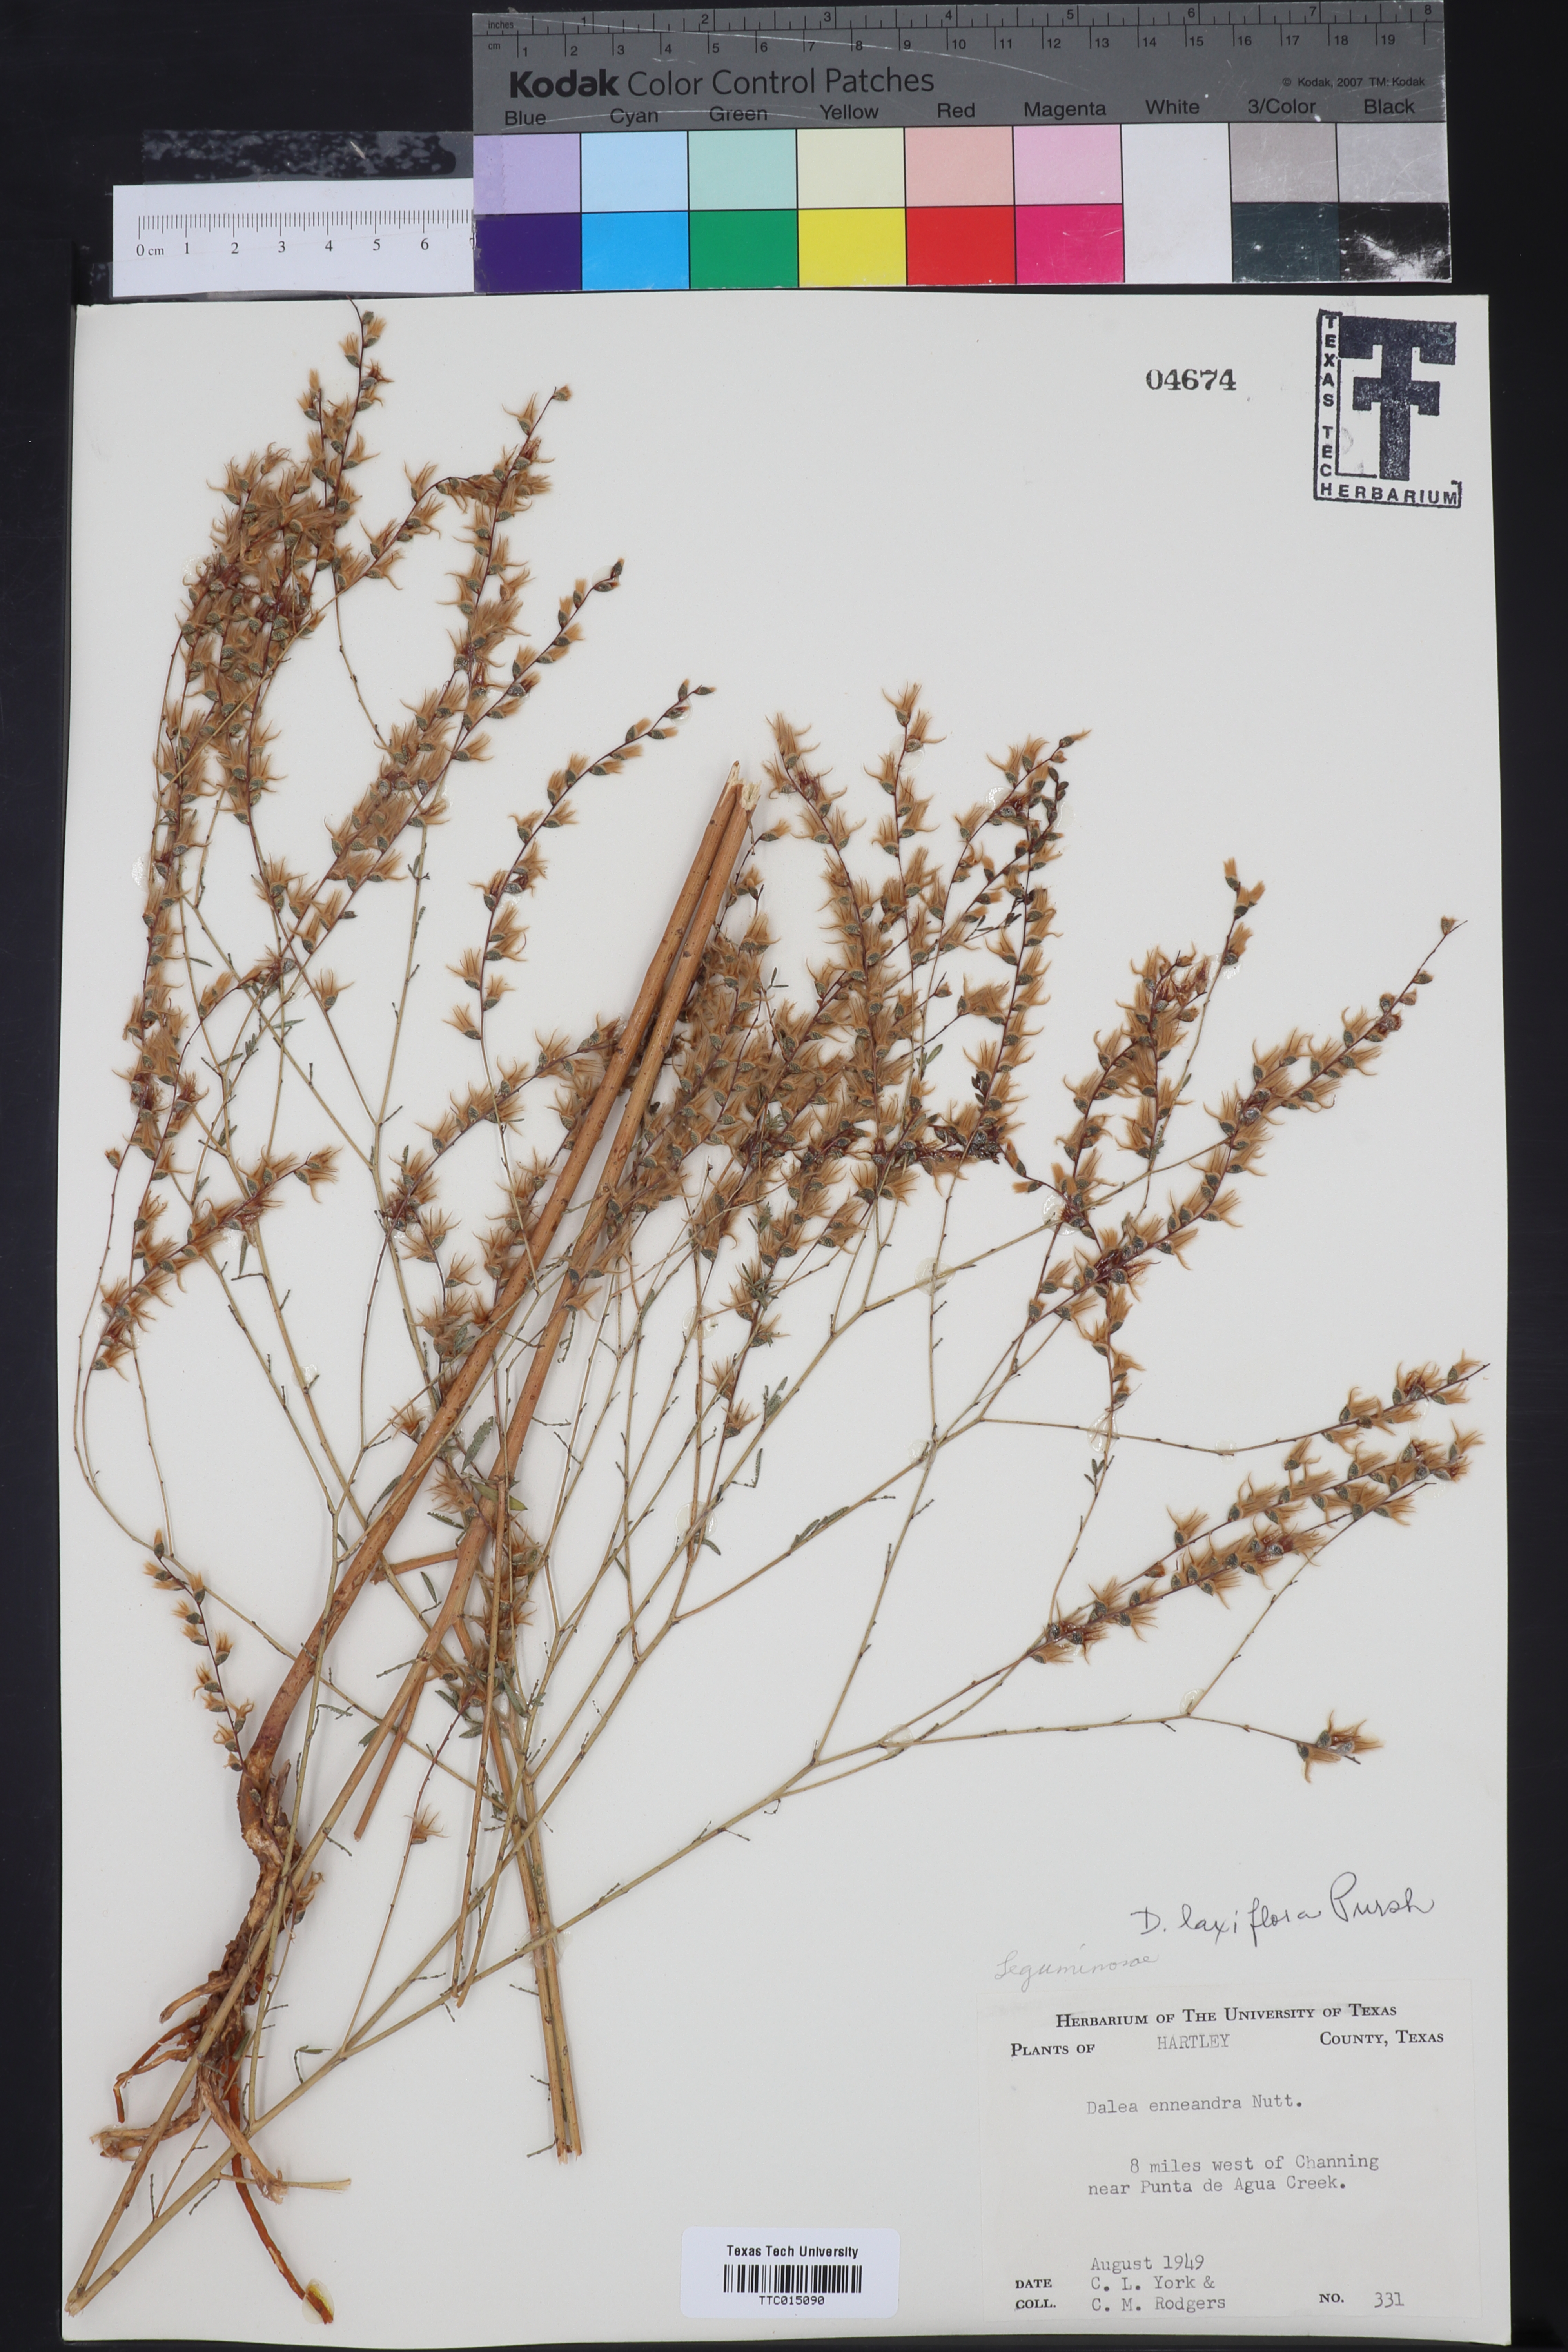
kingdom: Plantae
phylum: Tracheophyta
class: Magnoliopsida
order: Fabales
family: Fabaceae
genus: Dalea
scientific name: Dalea hegewischiana
